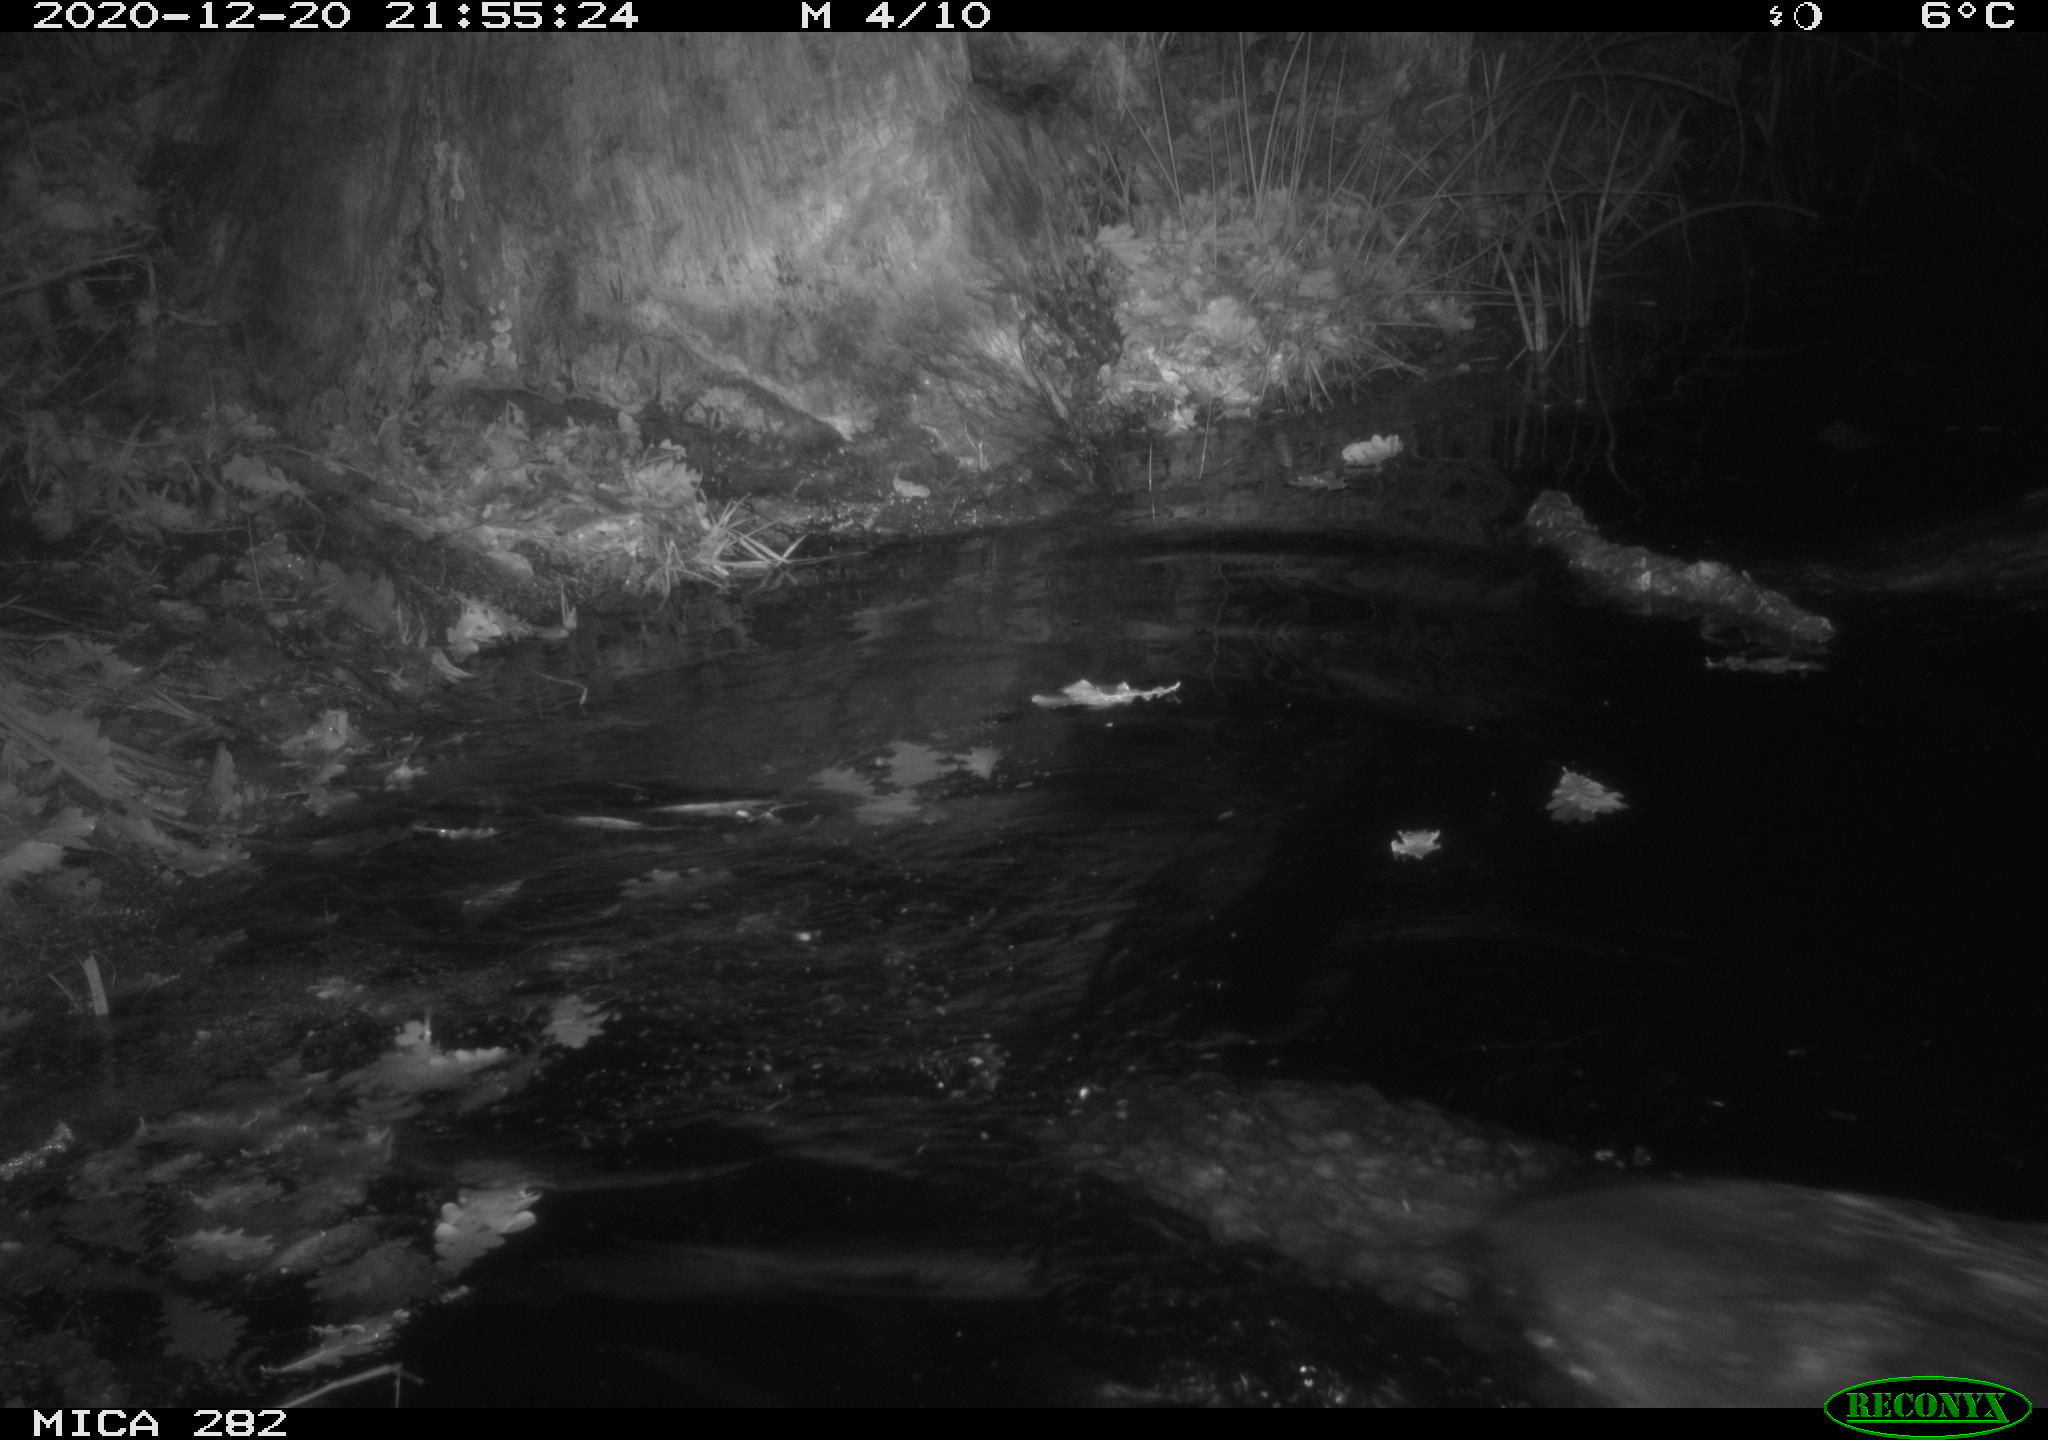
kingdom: Animalia
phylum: Chordata
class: Mammalia
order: Rodentia
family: Castoridae
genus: Castor
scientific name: Castor fiber
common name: Eurasian beaver
